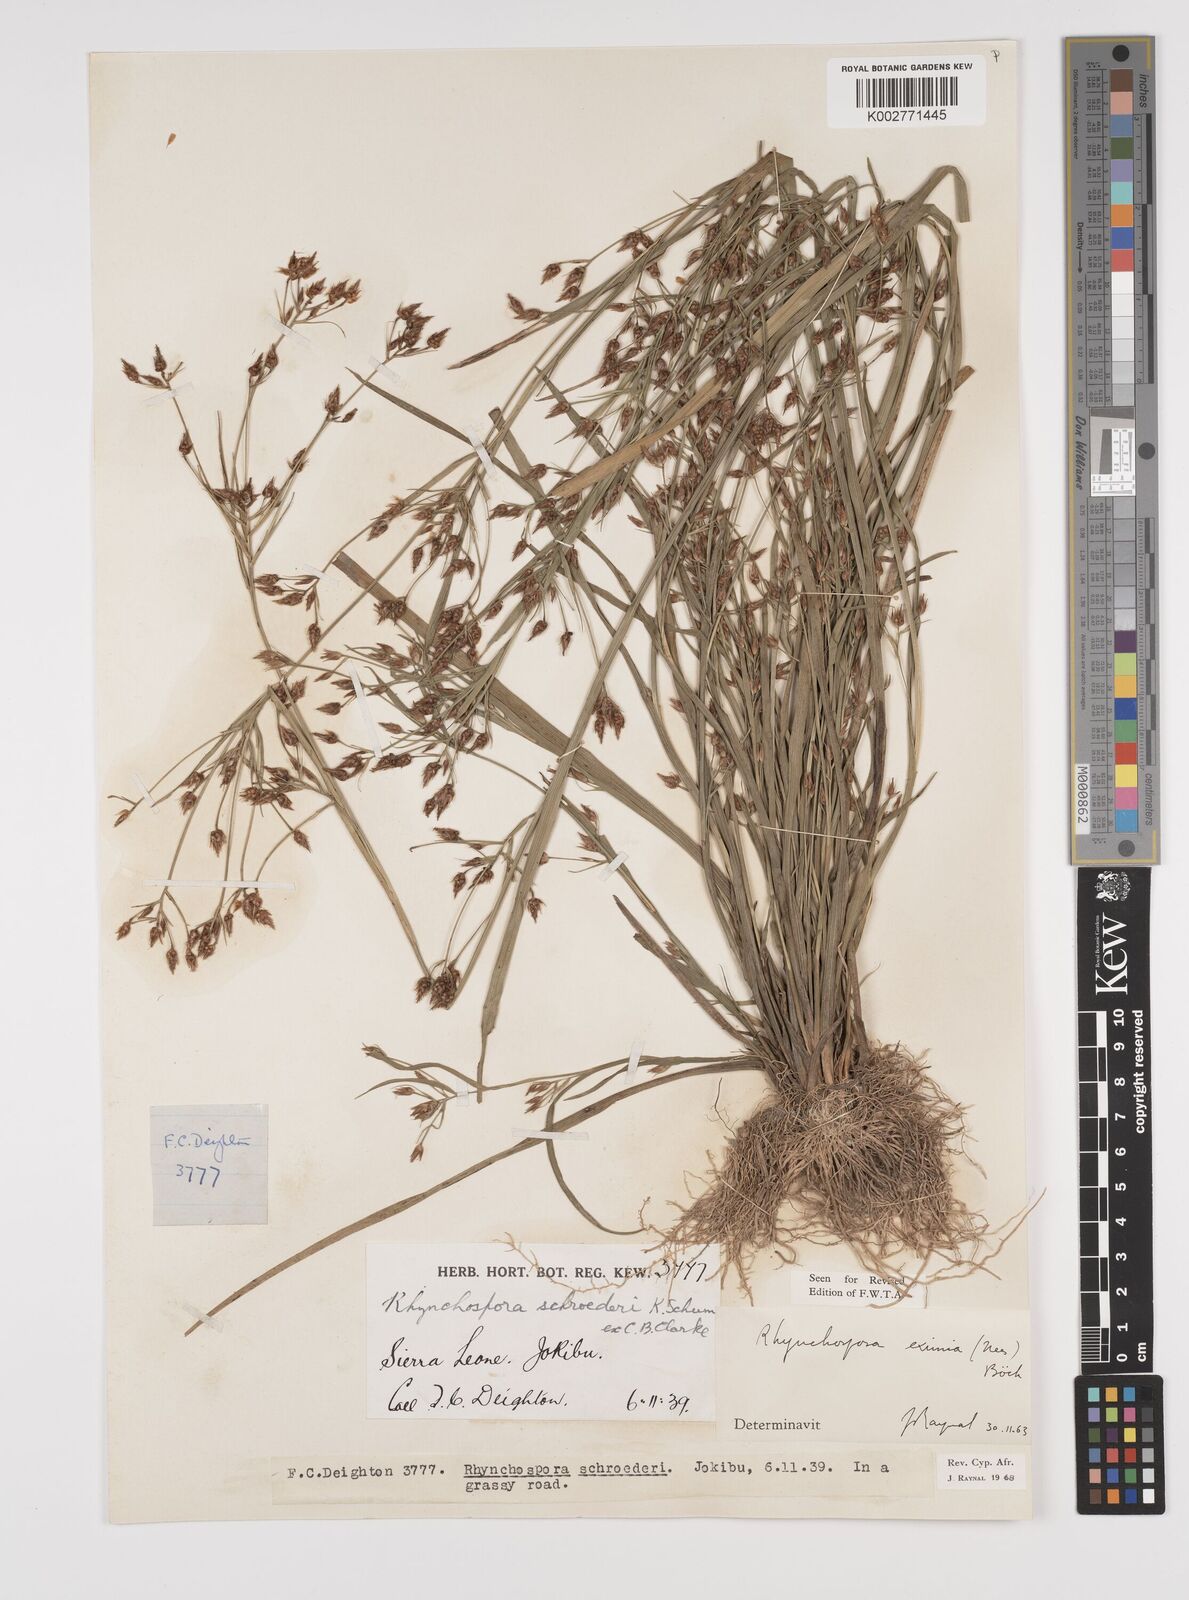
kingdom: Plantae
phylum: Tracheophyta
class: Liliopsida
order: Poales
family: Cyperaceae
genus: Rhynchospora
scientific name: Rhynchospora eximia
